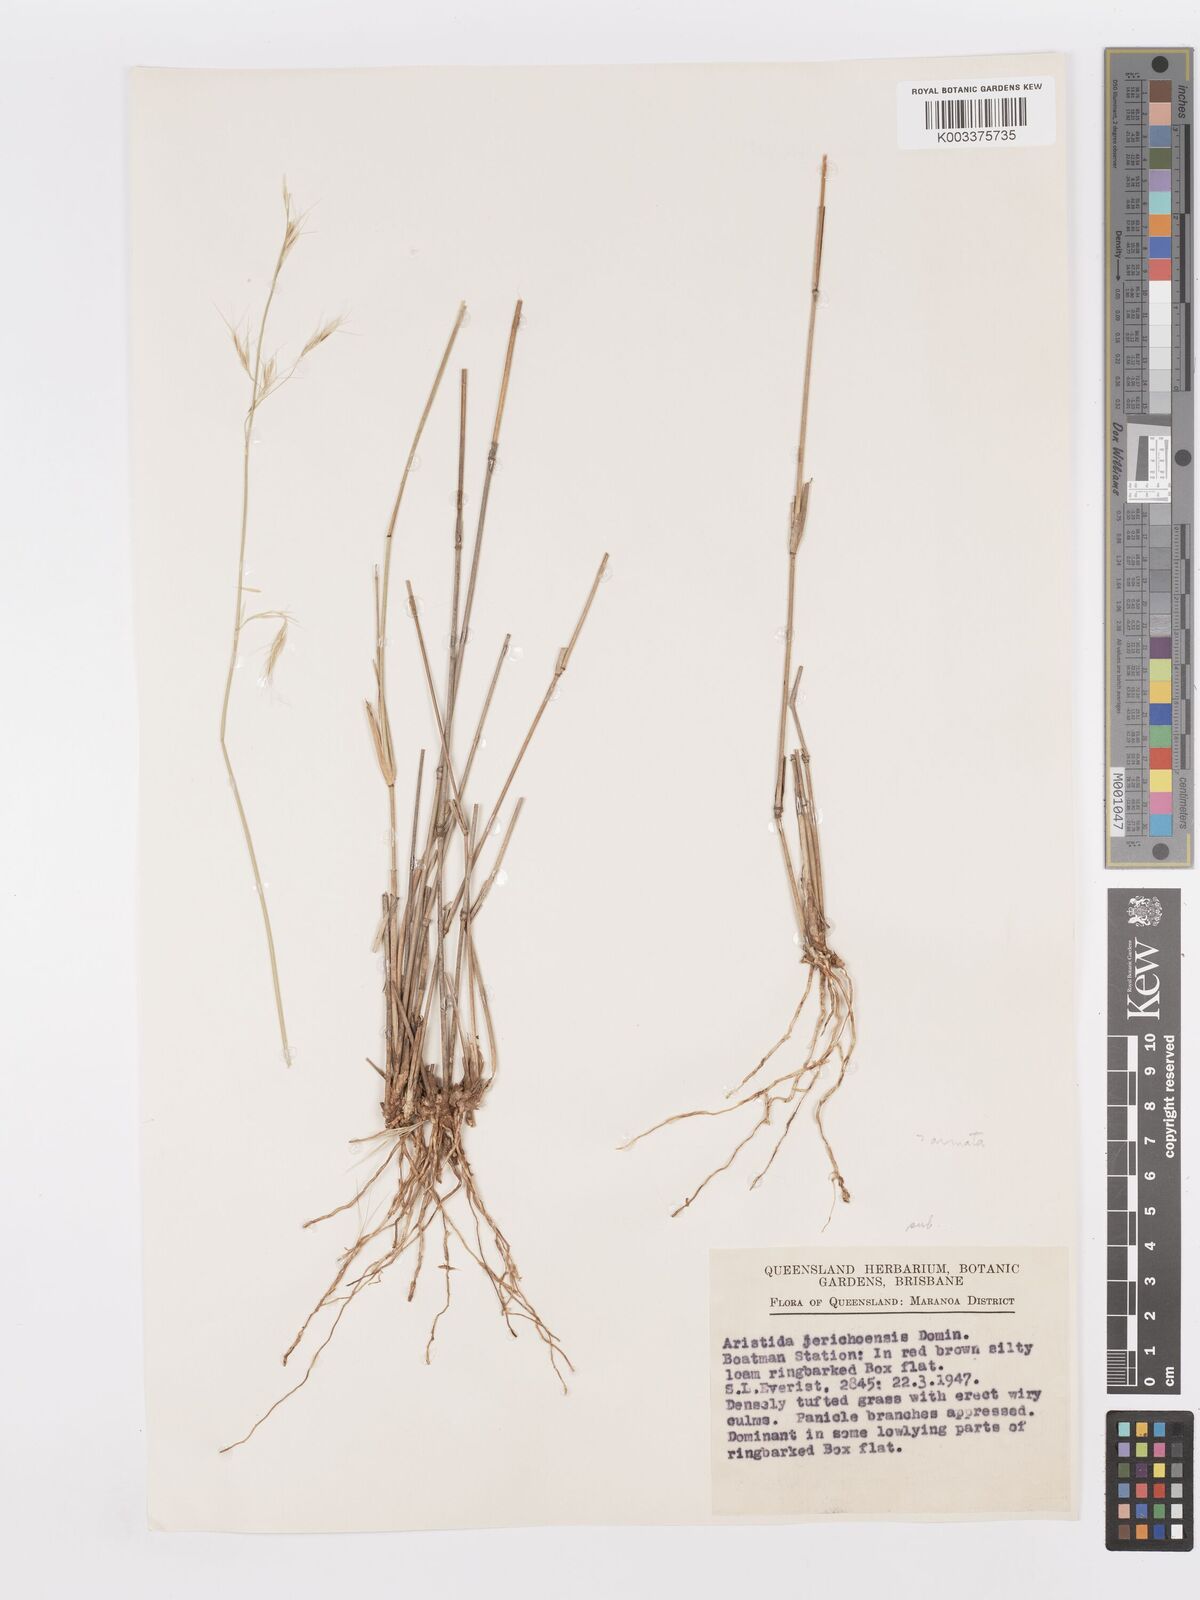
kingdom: Plantae
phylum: Tracheophyta
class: Liliopsida
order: Poales
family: Poaceae
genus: Aristida
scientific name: Aristida
